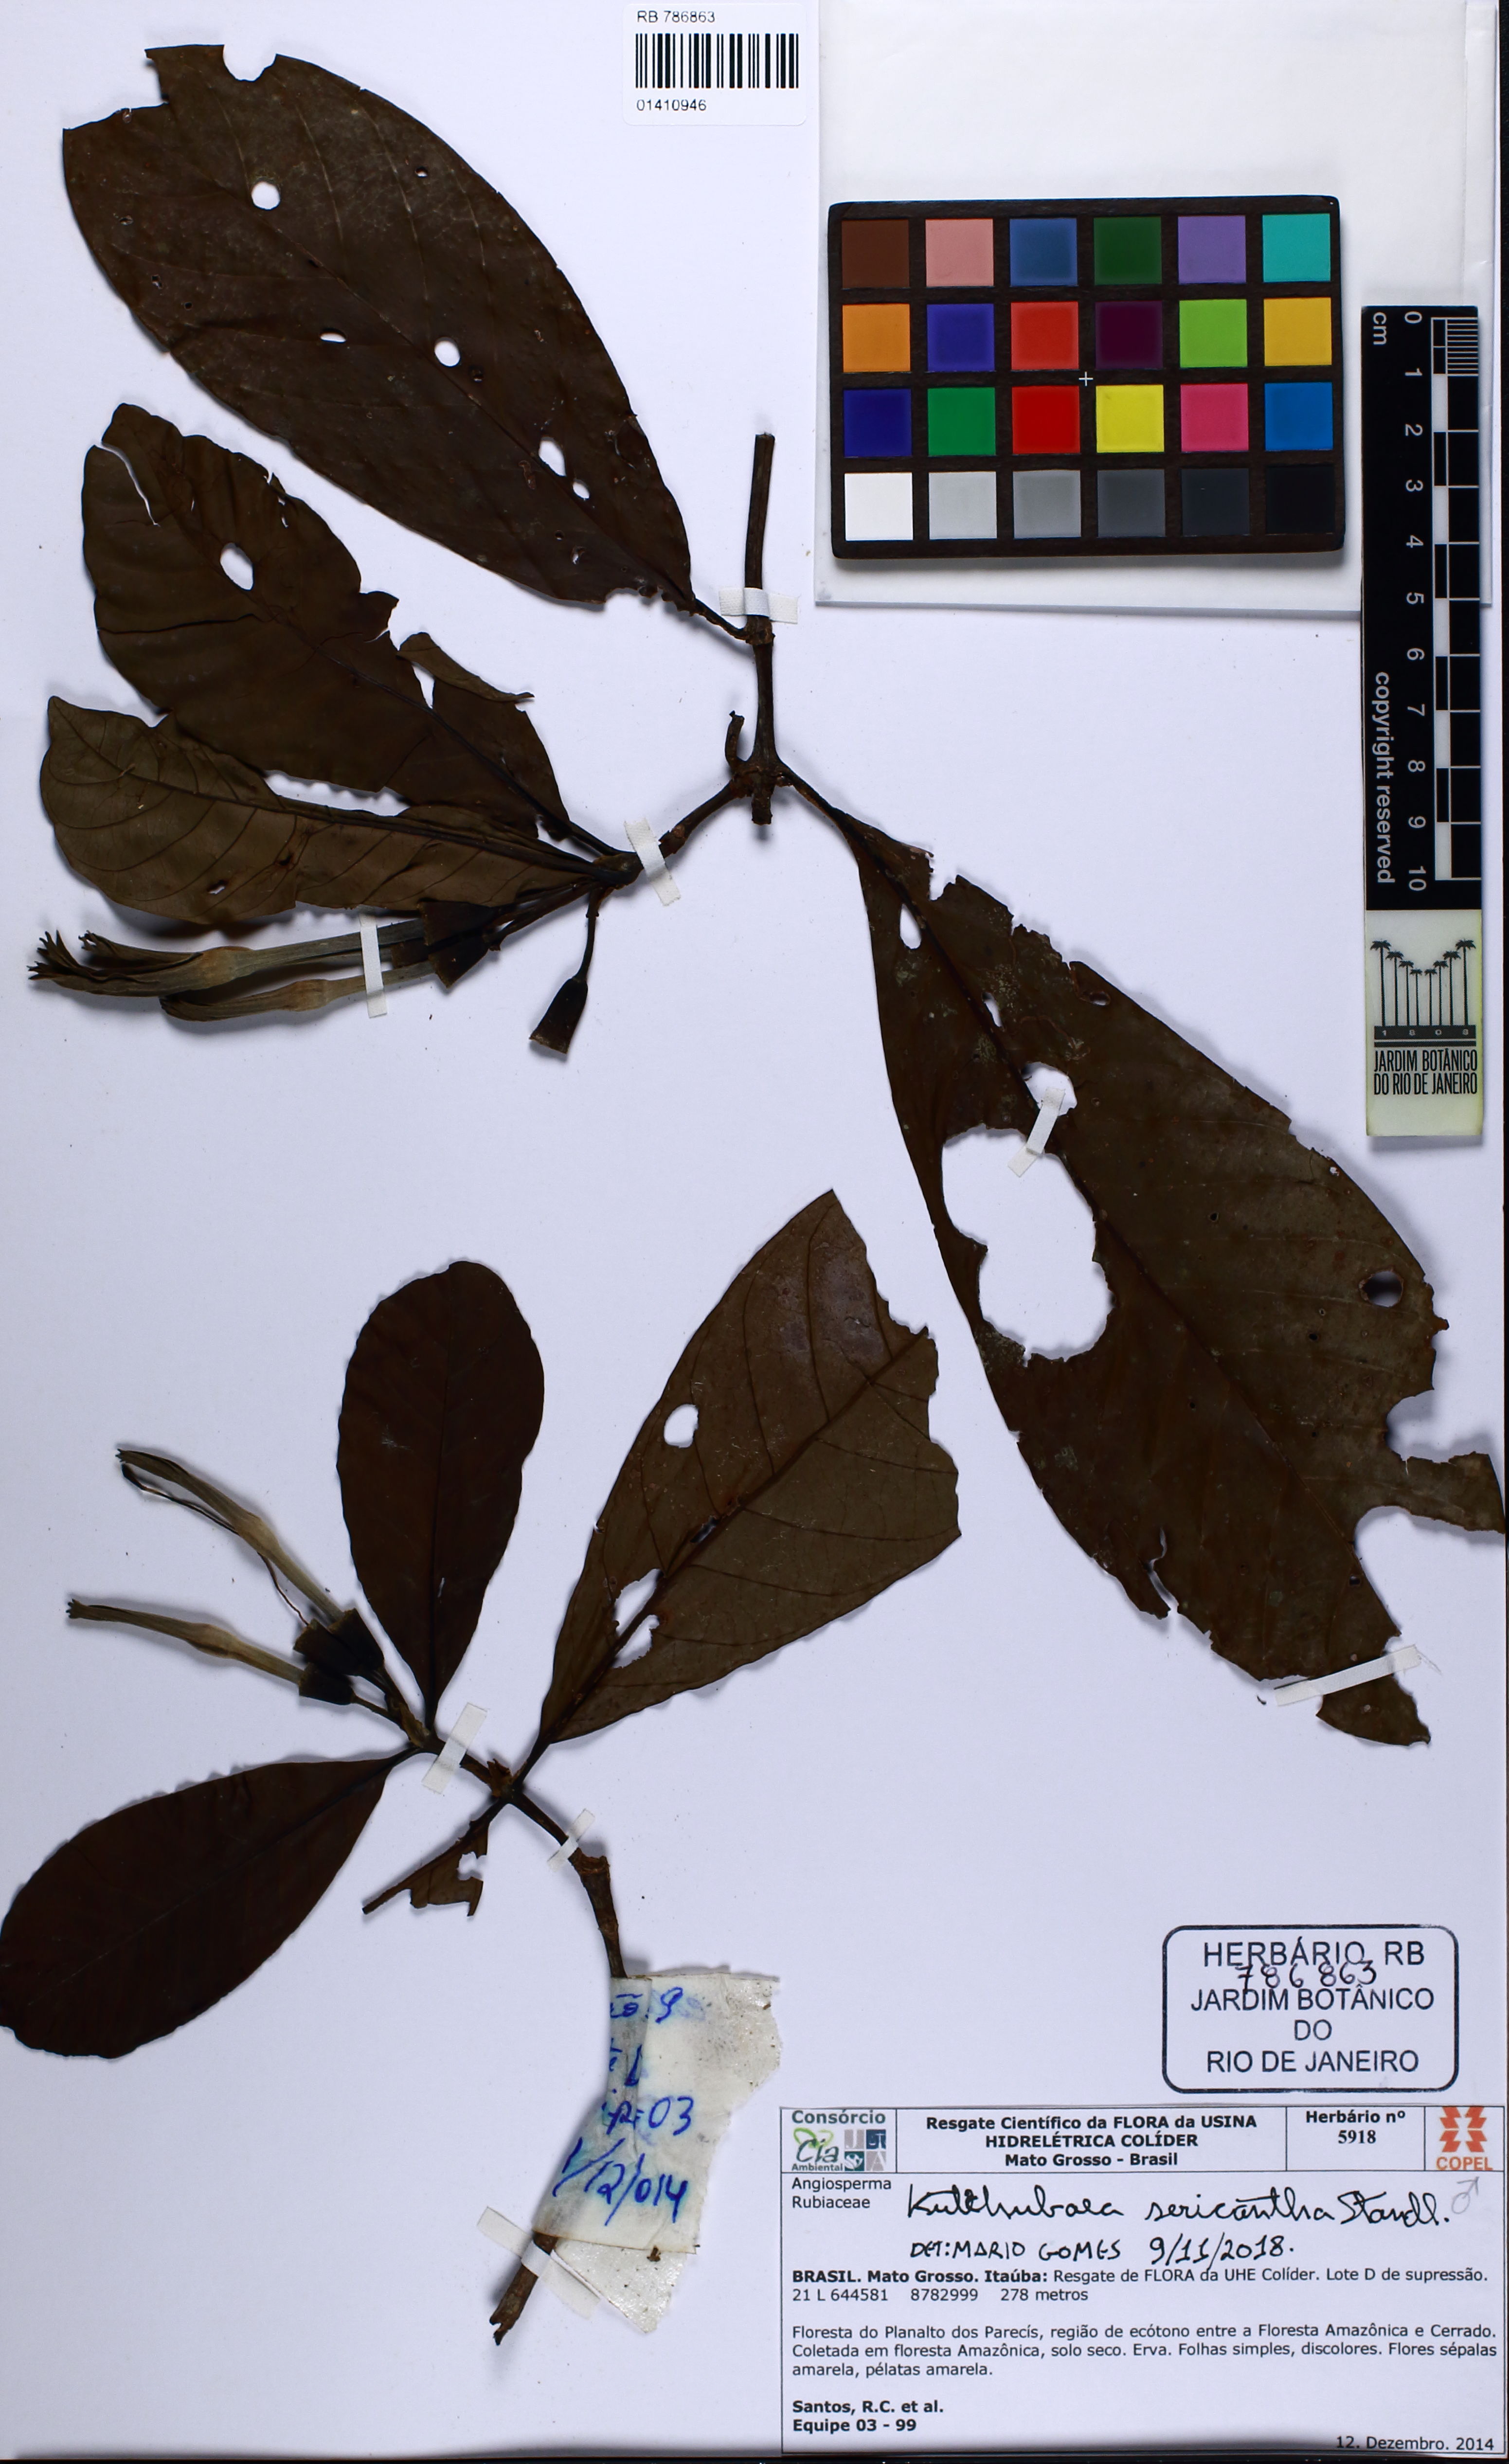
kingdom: Plantae
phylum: Tracheophyta
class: Magnoliopsida
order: Gentianales
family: Rubiaceae
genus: Kutchubaea
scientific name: Kutchubaea sericantha
